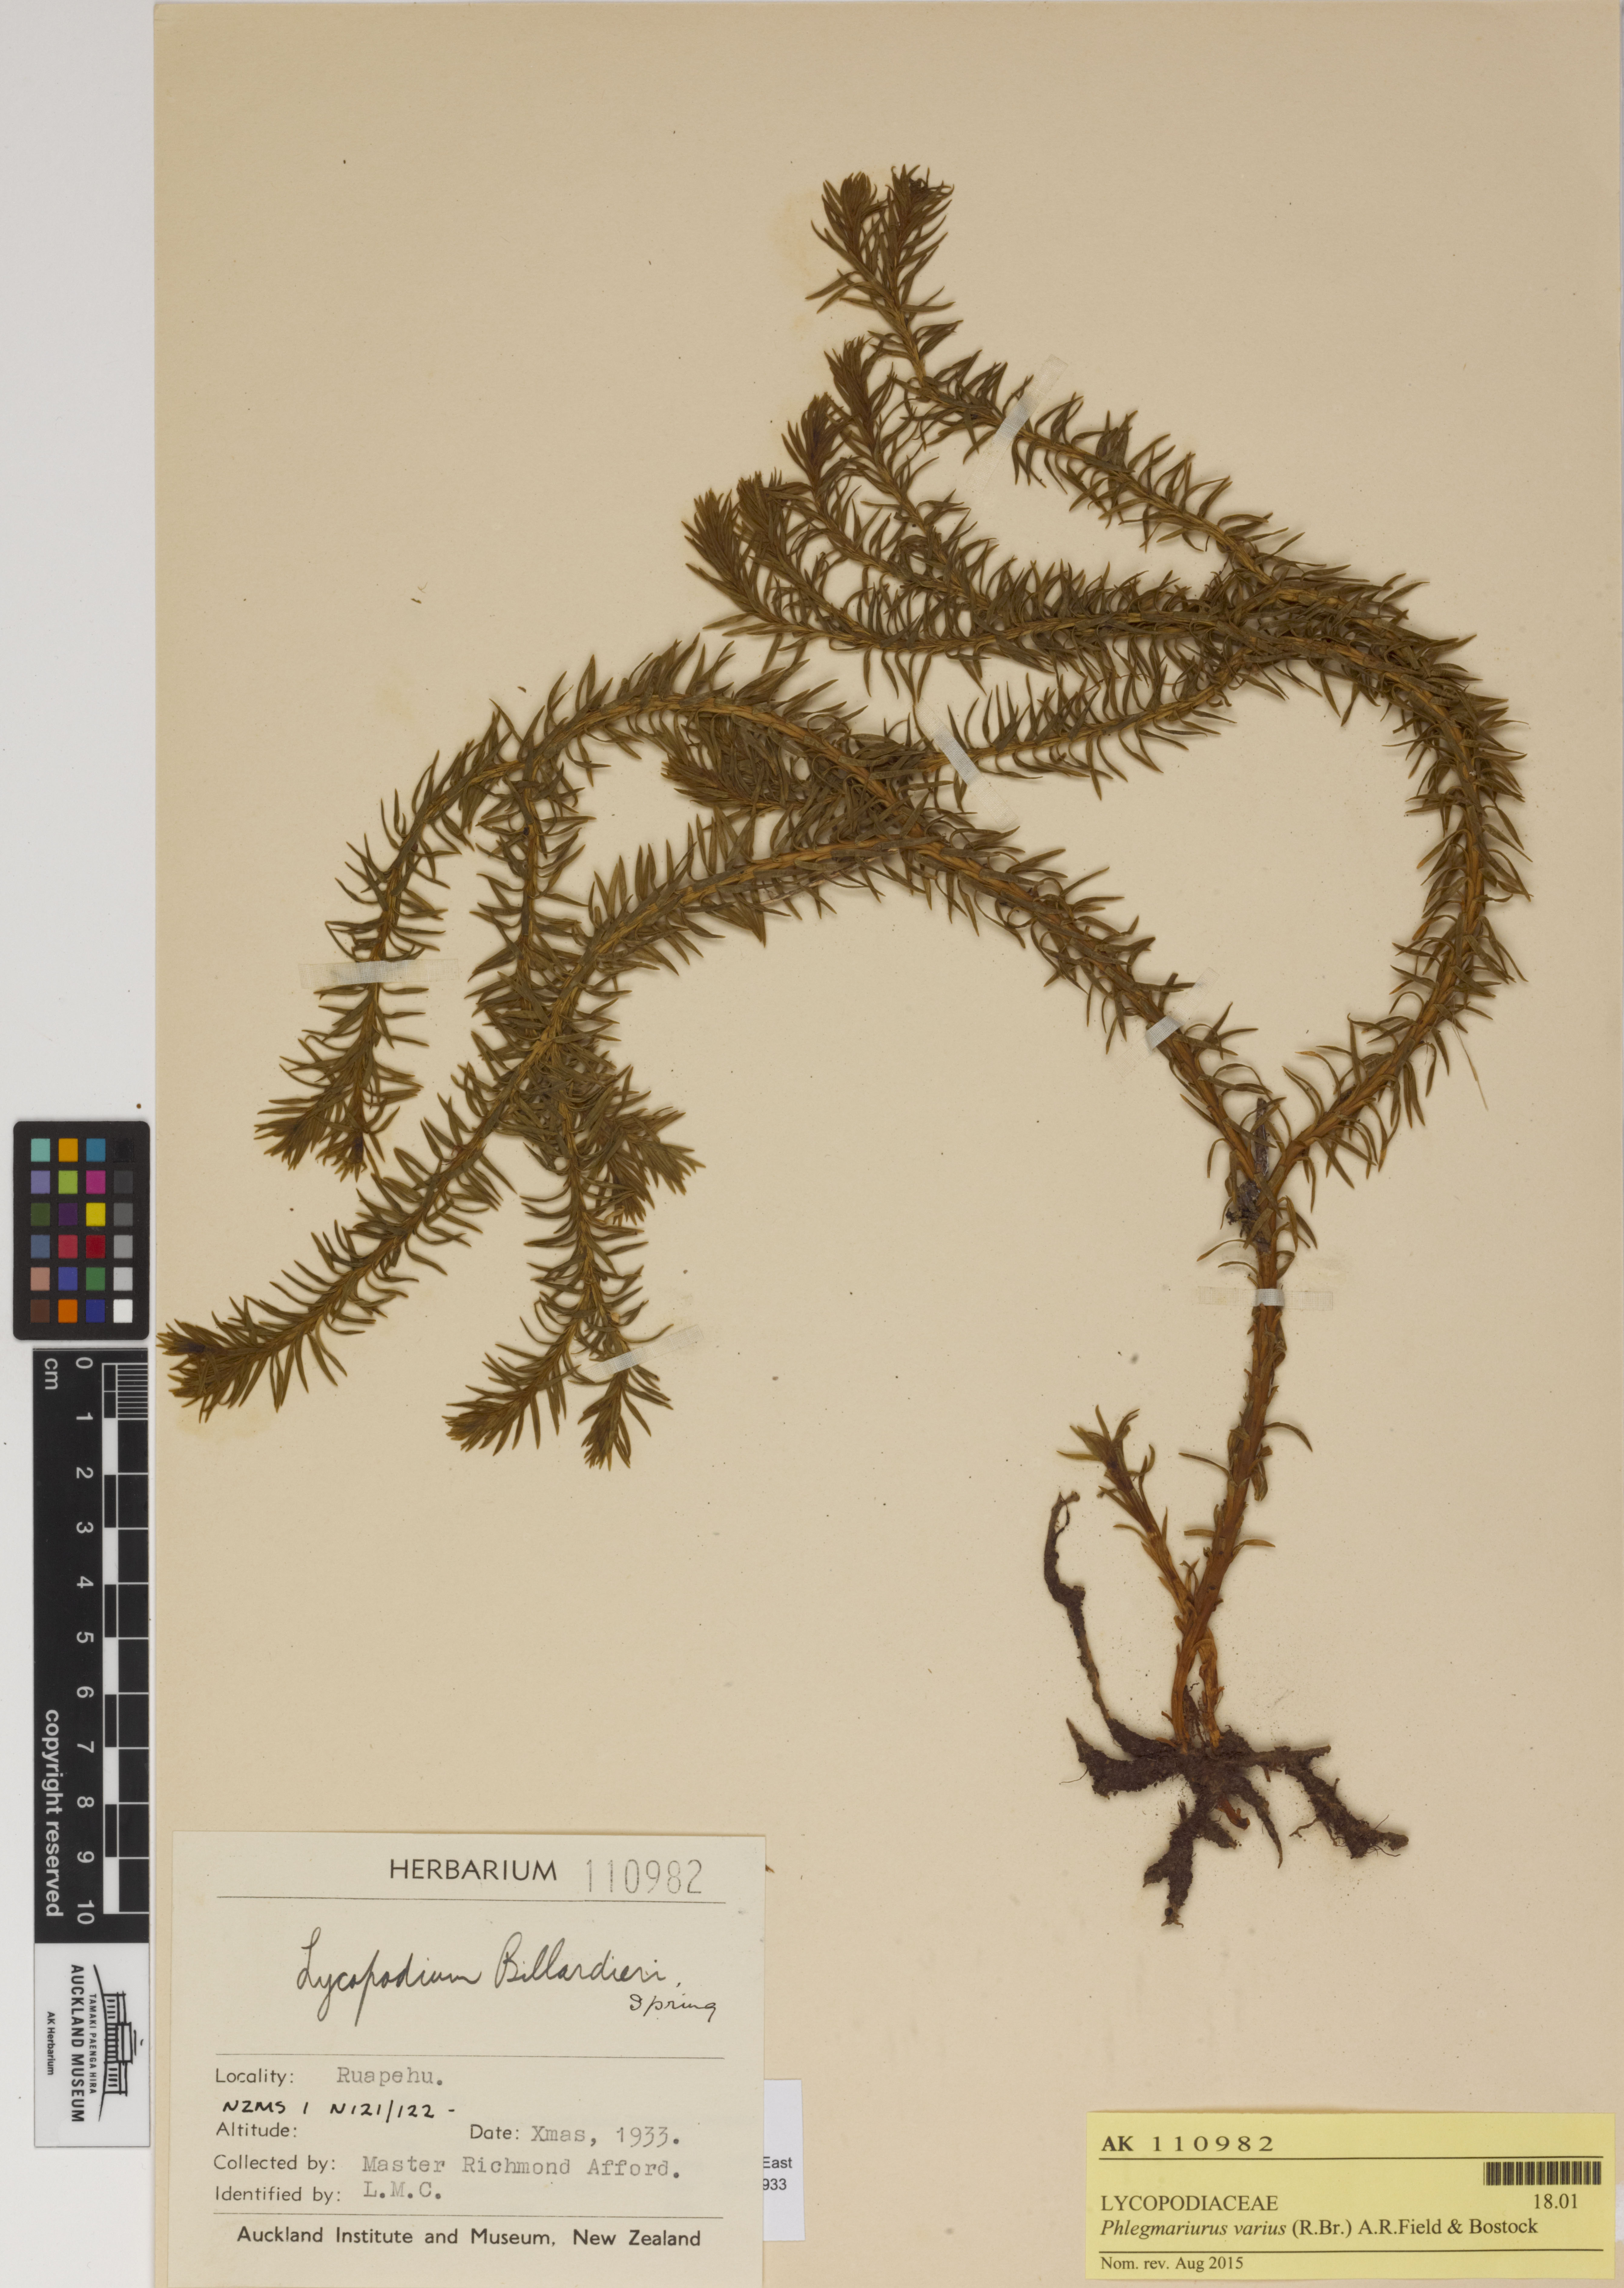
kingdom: Plantae
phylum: Tracheophyta
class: Lycopodiopsida
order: Lycopodiales
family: Lycopodiaceae
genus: Phlegmariurus
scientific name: Phlegmariurus
